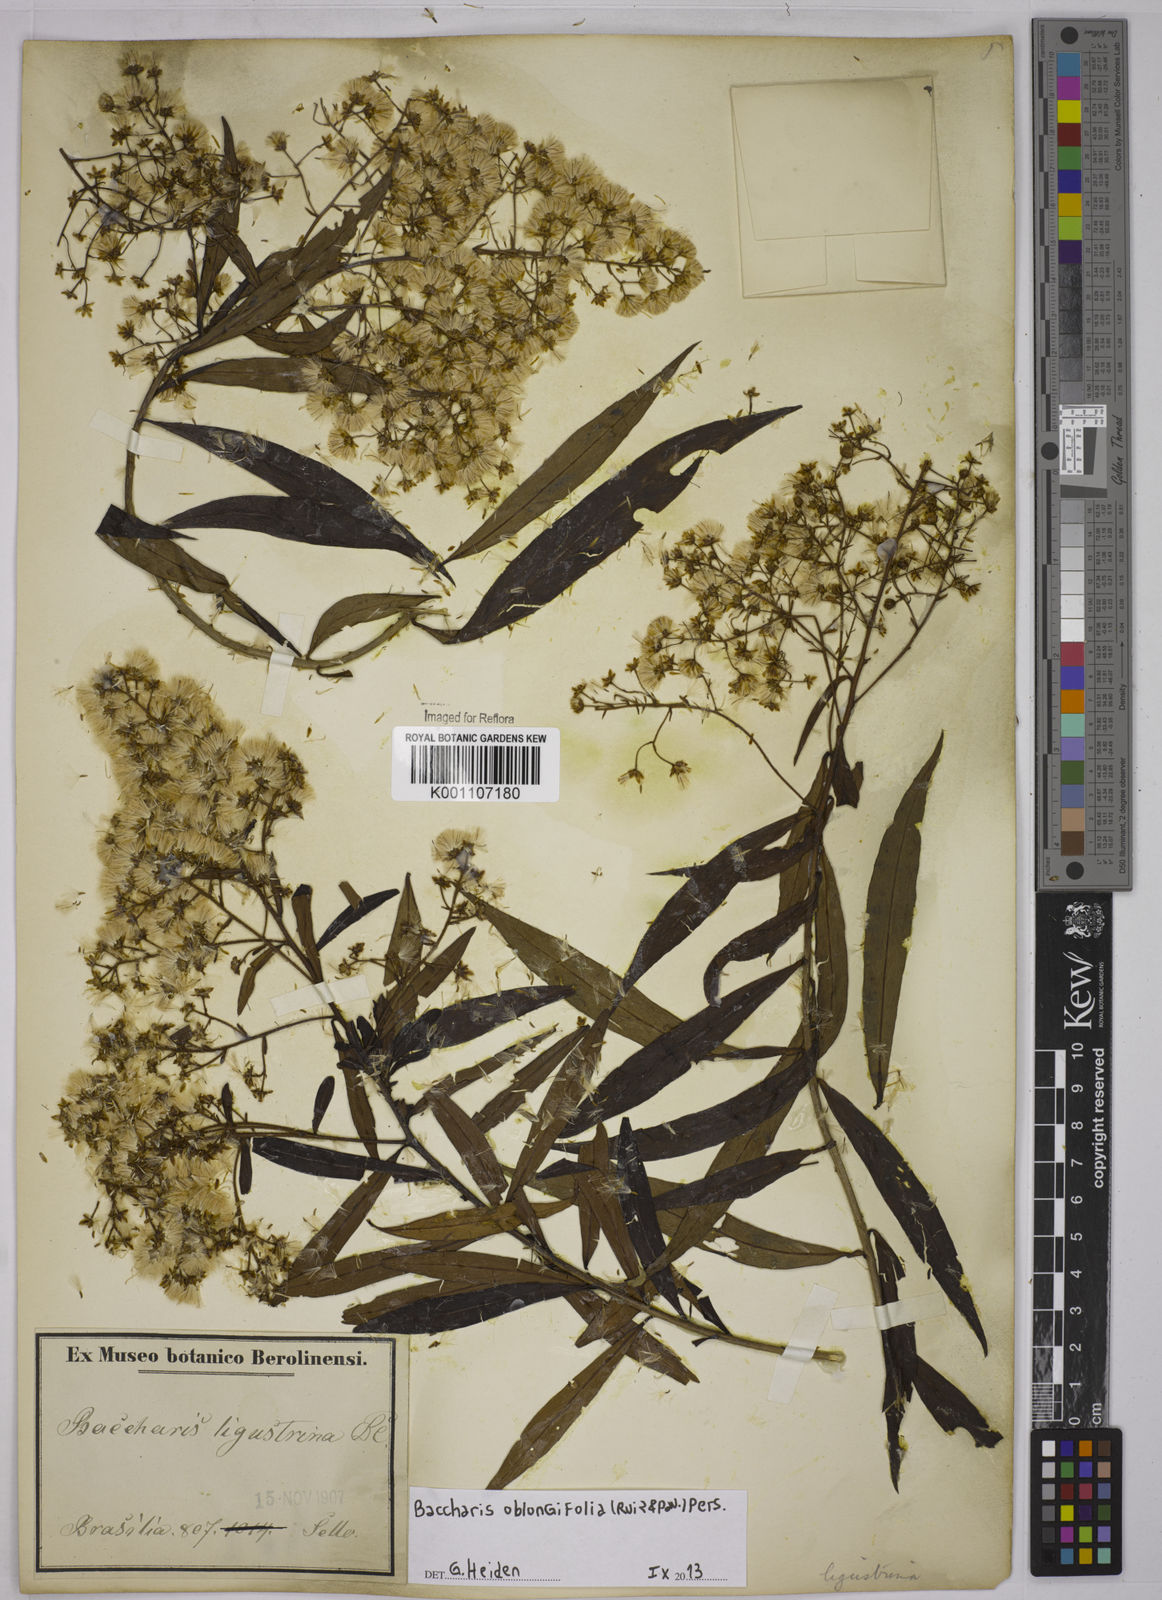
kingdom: Plantae
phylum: Tracheophyta
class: Magnoliopsida
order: Asterales
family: Asteraceae
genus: Baccharis
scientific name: Baccharis oblongifolia
